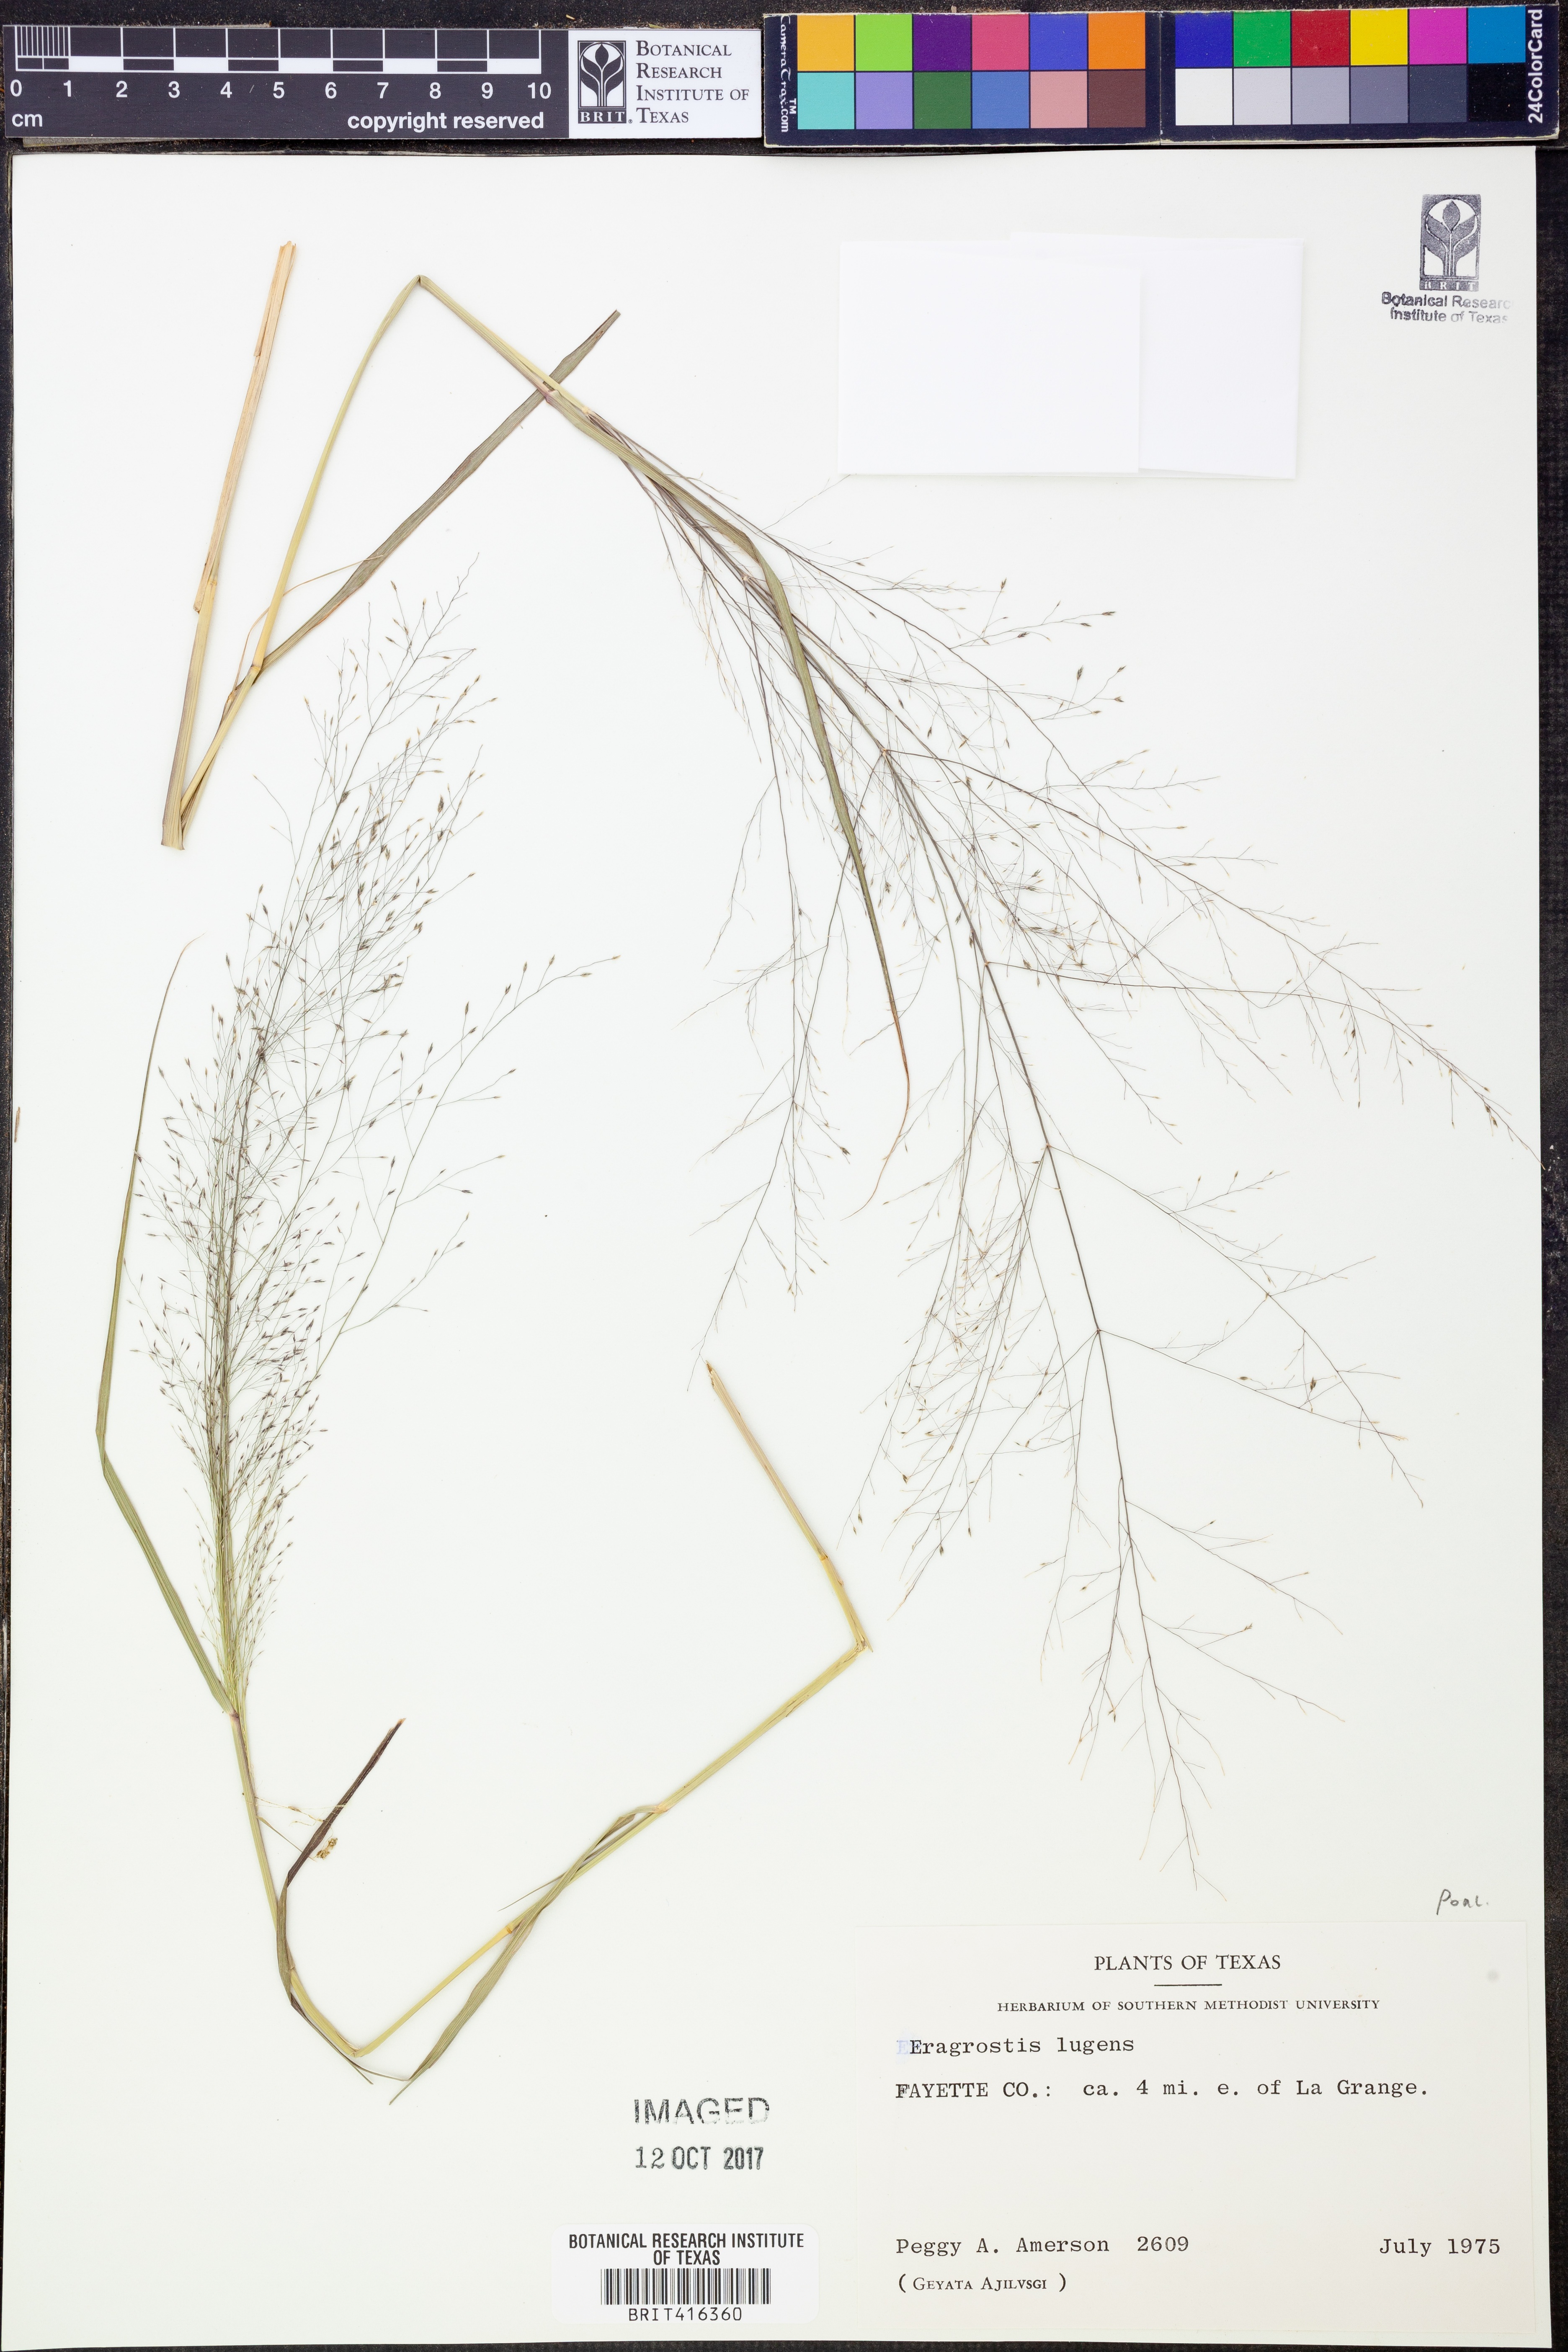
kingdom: Plantae
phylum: Tracheophyta
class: Liliopsida
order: Poales
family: Poaceae
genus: Eragrostis
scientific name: Eragrostis capillaris
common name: Hair-like lovegrass
